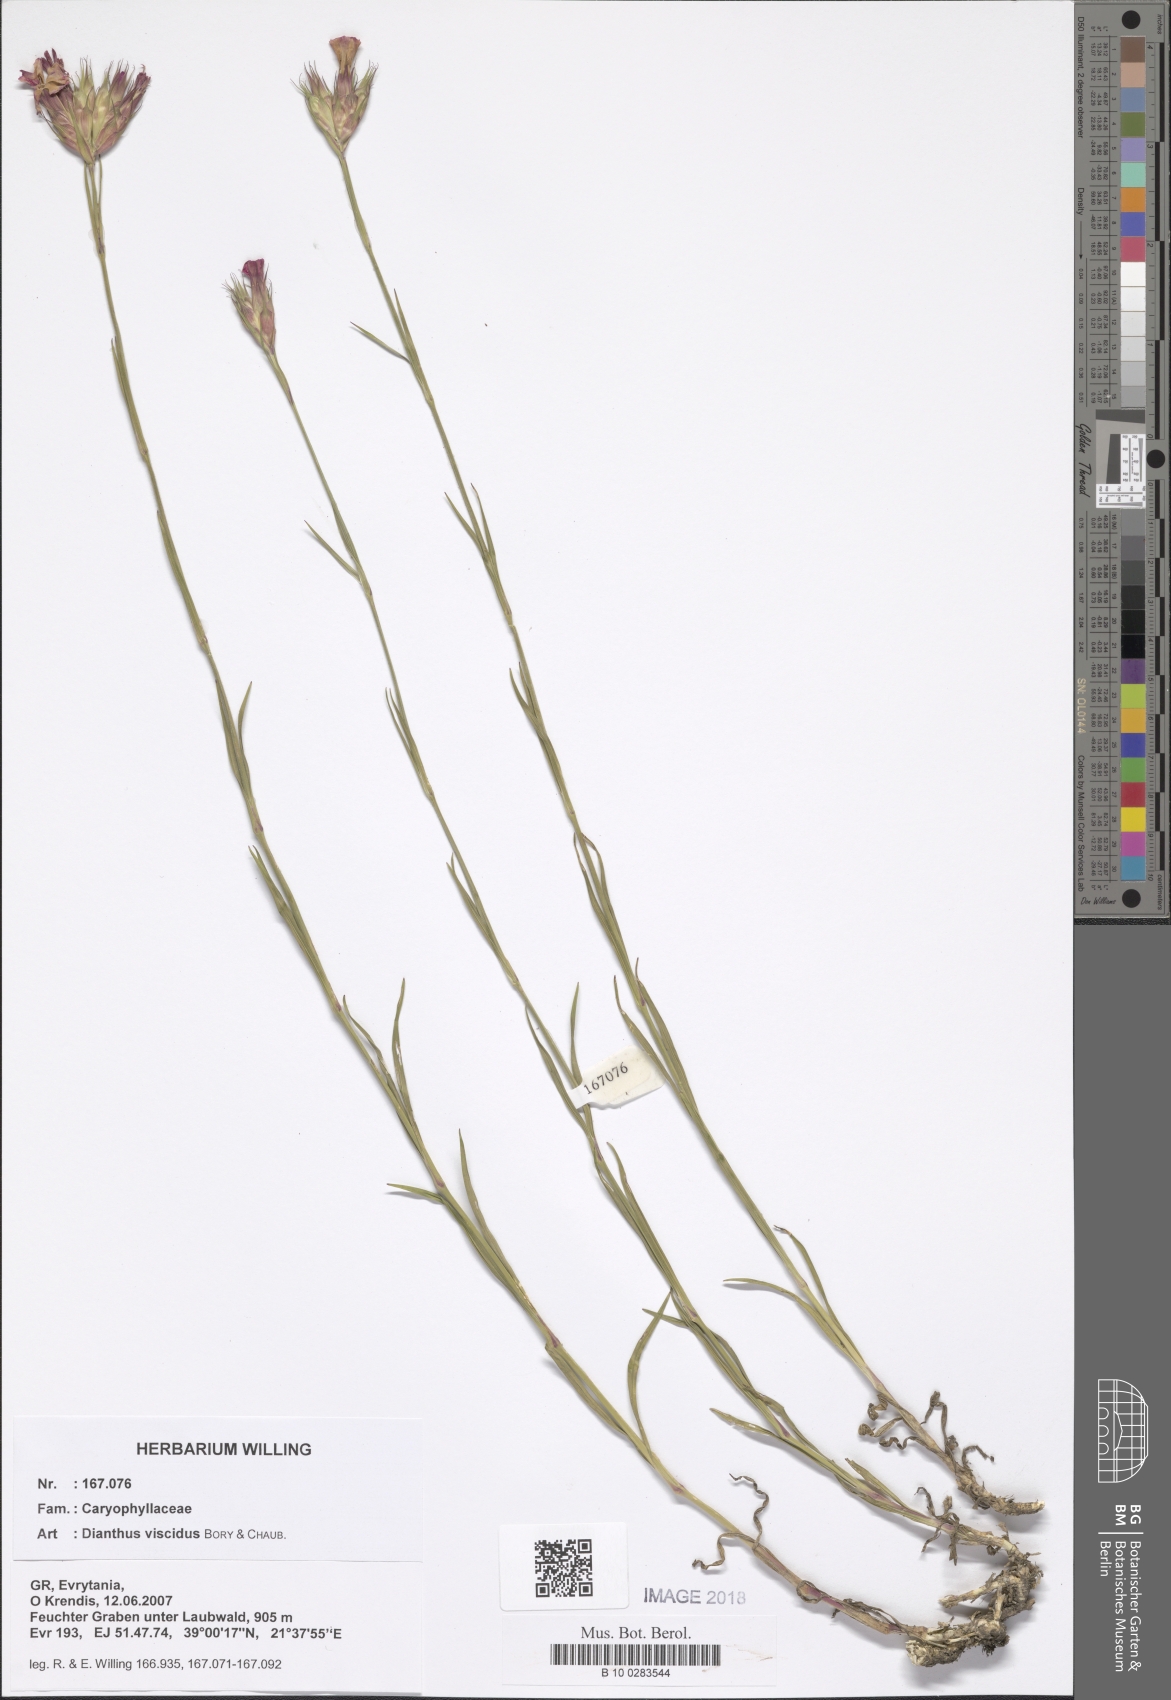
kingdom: Plantae
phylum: Tracheophyta
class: Magnoliopsida
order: Caryophyllales
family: Caryophyllaceae
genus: Dianthus
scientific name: Dianthus viscidus
